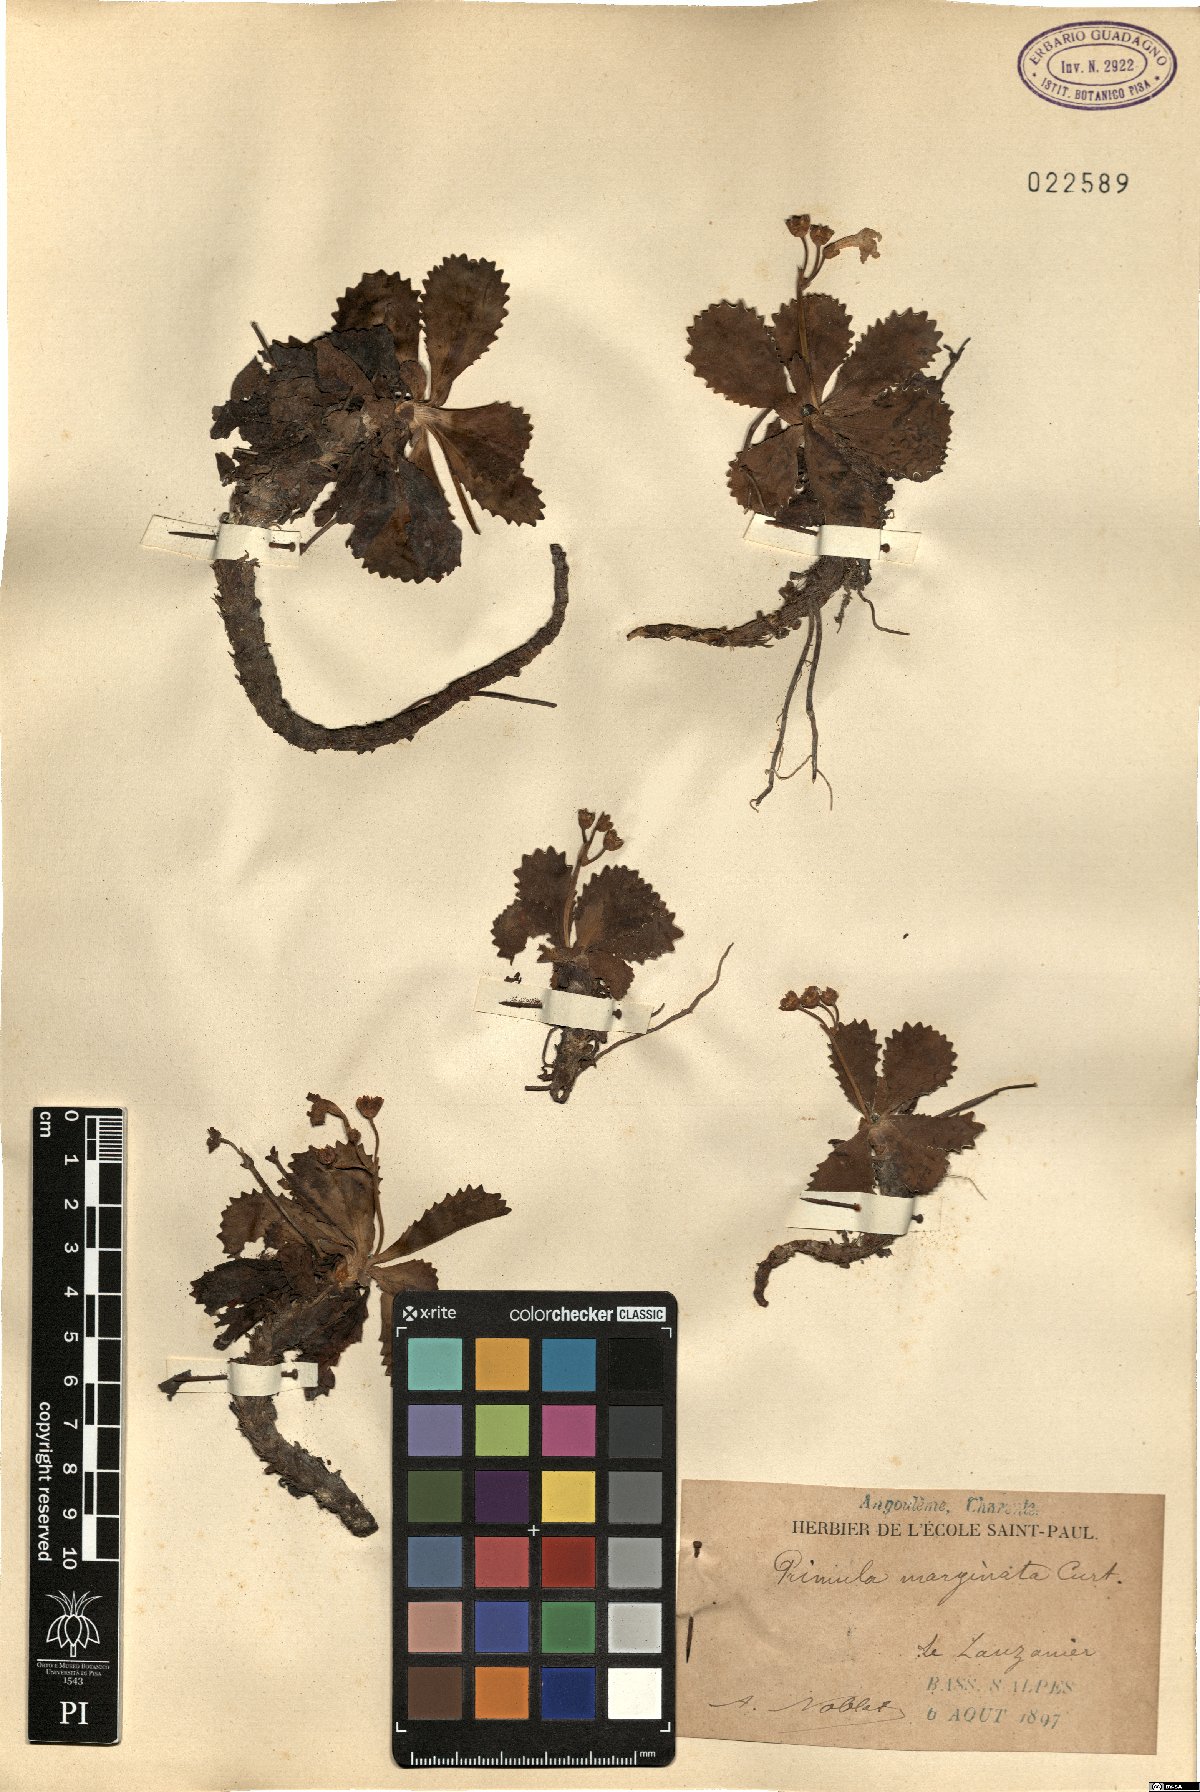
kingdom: Plantae
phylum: Tracheophyta
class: Magnoliopsida
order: Ericales
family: Primulaceae
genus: Primula
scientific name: Primula marginata
